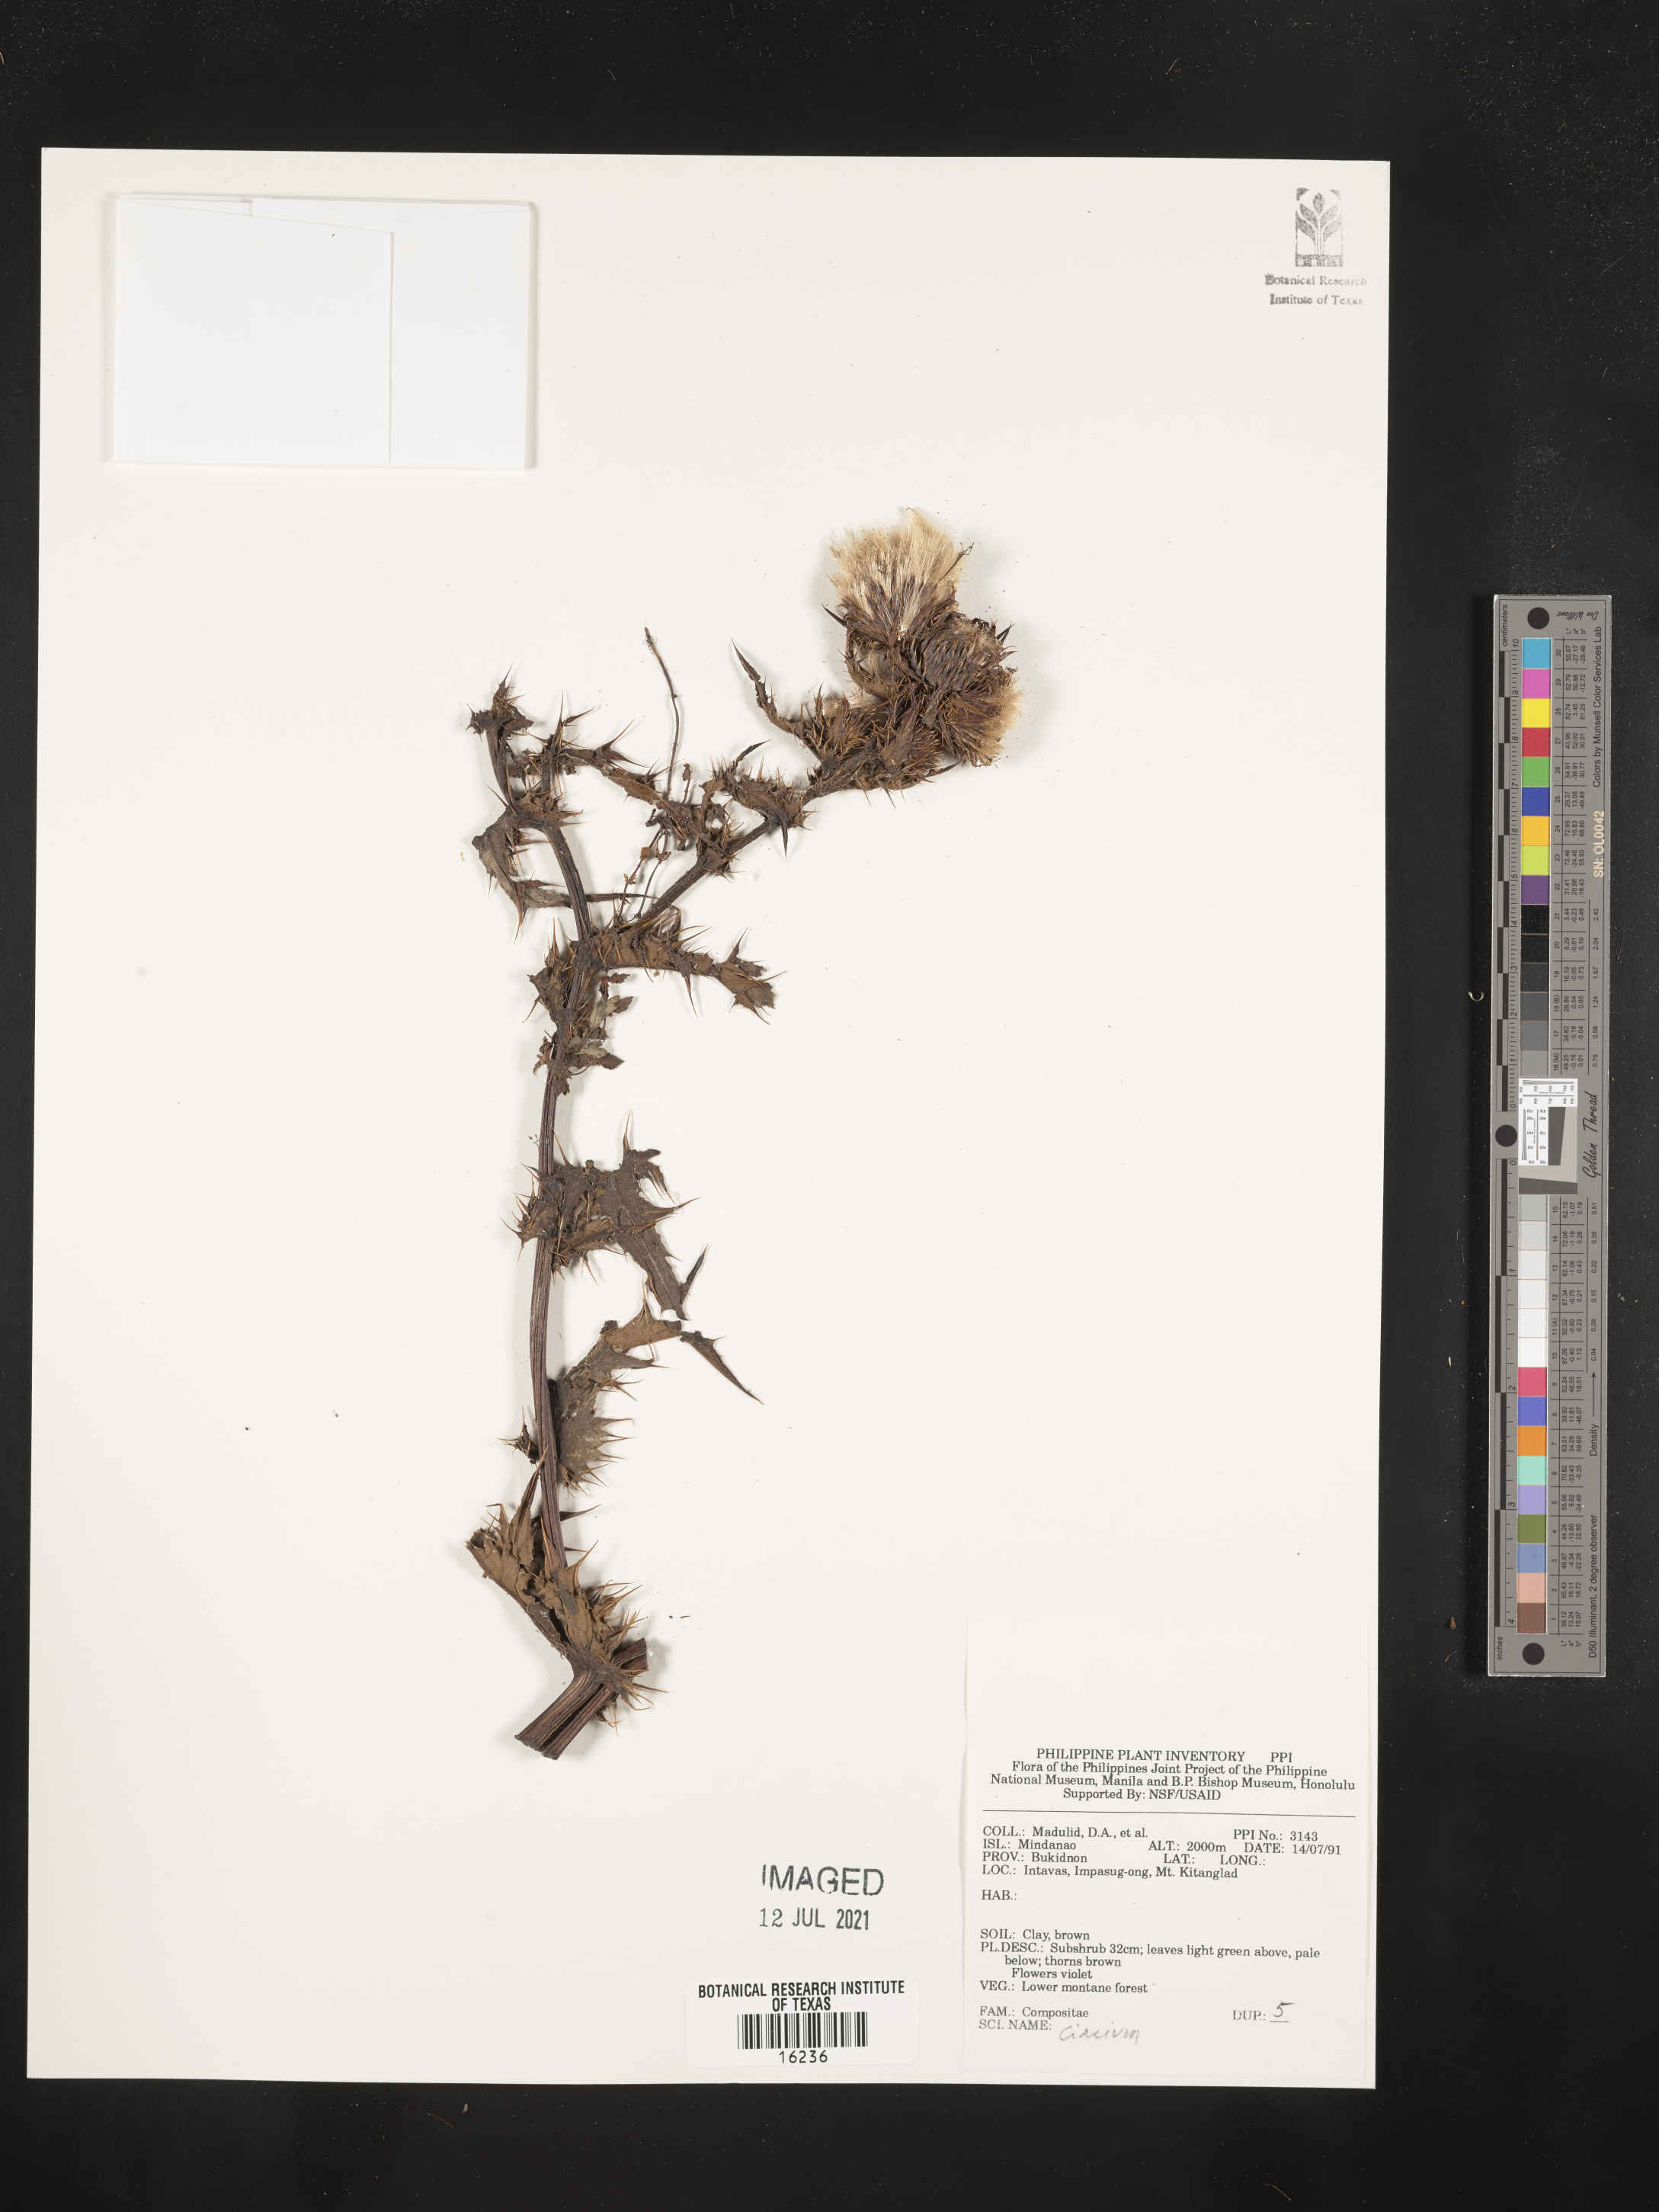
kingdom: Plantae
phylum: Tracheophyta
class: Magnoliopsida
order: Asterales
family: Asteraceae
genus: Cirsium
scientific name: Cirsium
